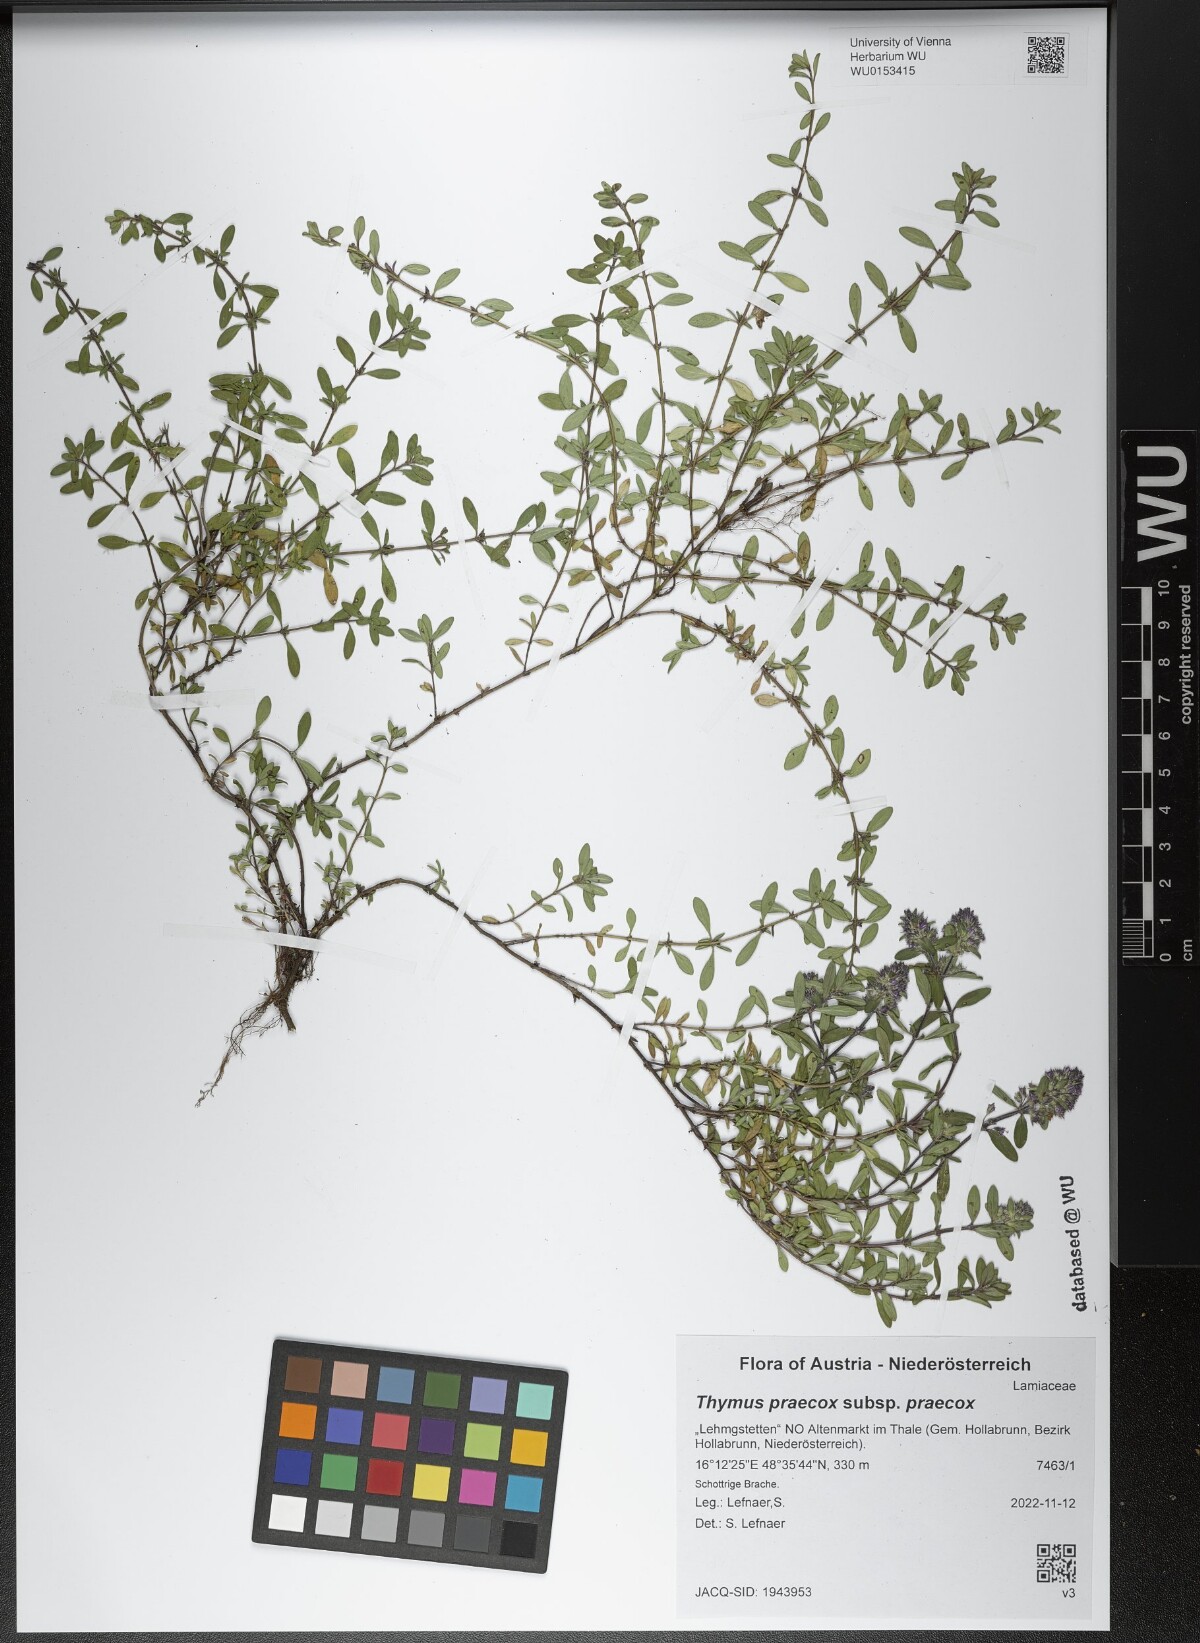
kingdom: Plantae
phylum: Tracheophyta
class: Magnoliopsida
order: Lamiales
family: Lamiaceae
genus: Thymus
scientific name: Thymus praecox
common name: Wild thyme
